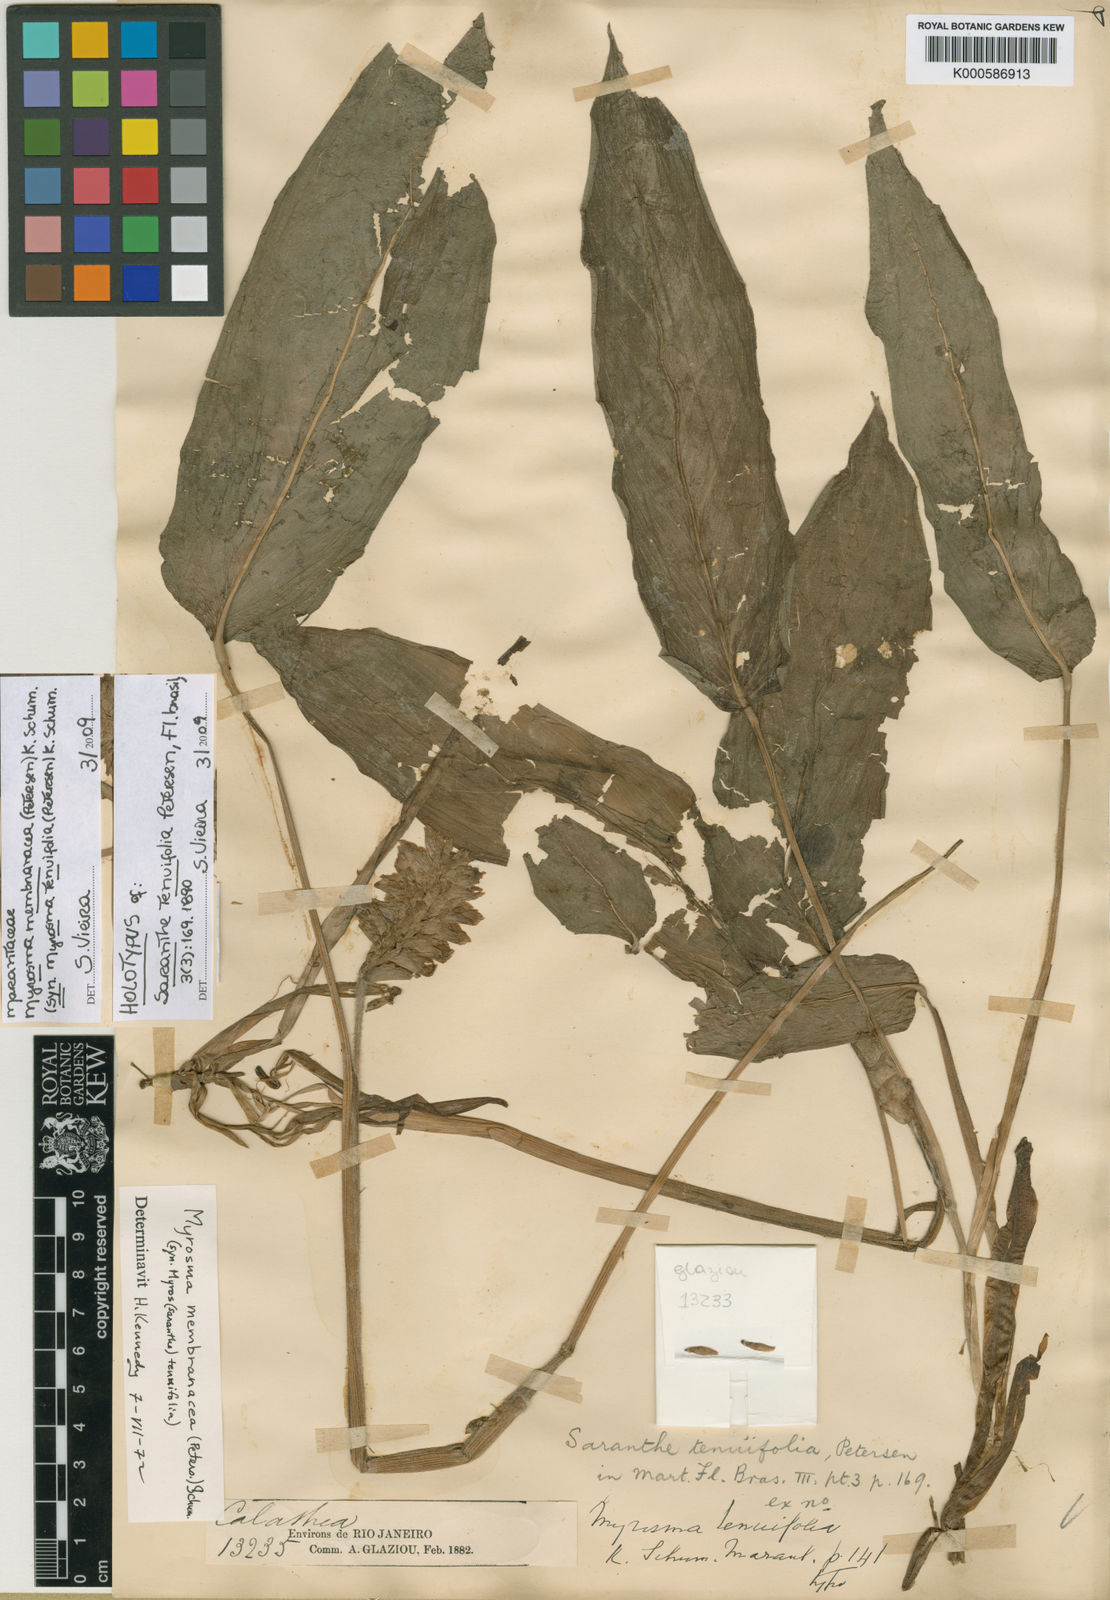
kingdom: Plantae
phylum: Tracheophyta
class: Liliopsida
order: Zingiberales
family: Marantaceae
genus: Saranthe
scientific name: Saranthe tenuifolia
